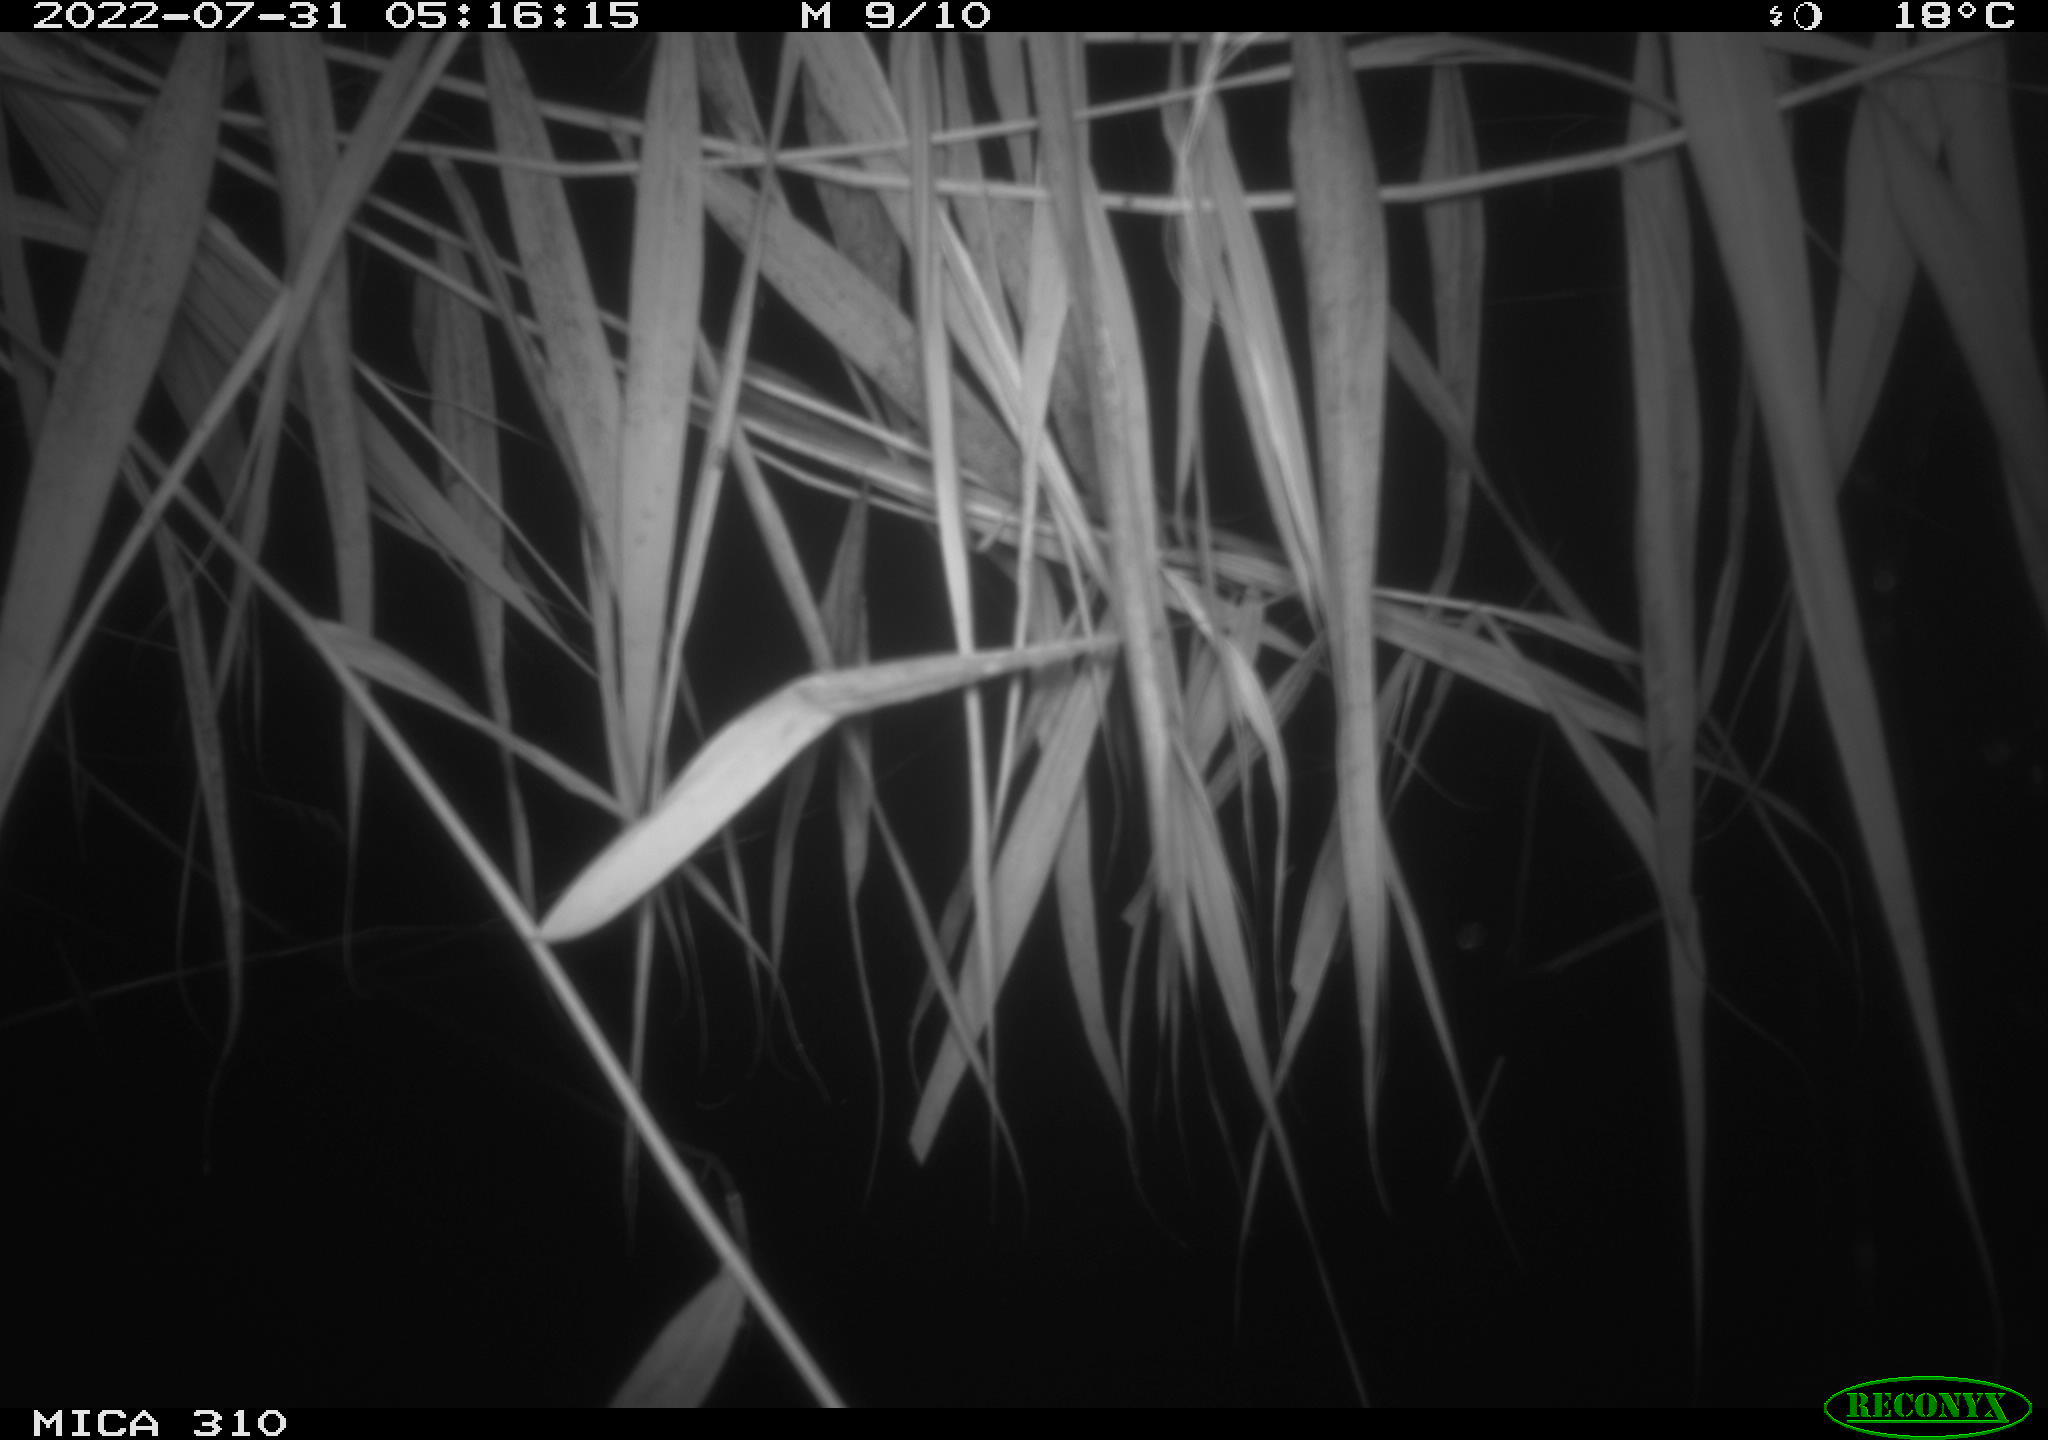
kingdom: Animalia
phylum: Chordata
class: Aves
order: Anseriformes
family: Anatidae
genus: Anas
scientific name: Anas platyrhynchos
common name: Mallard
